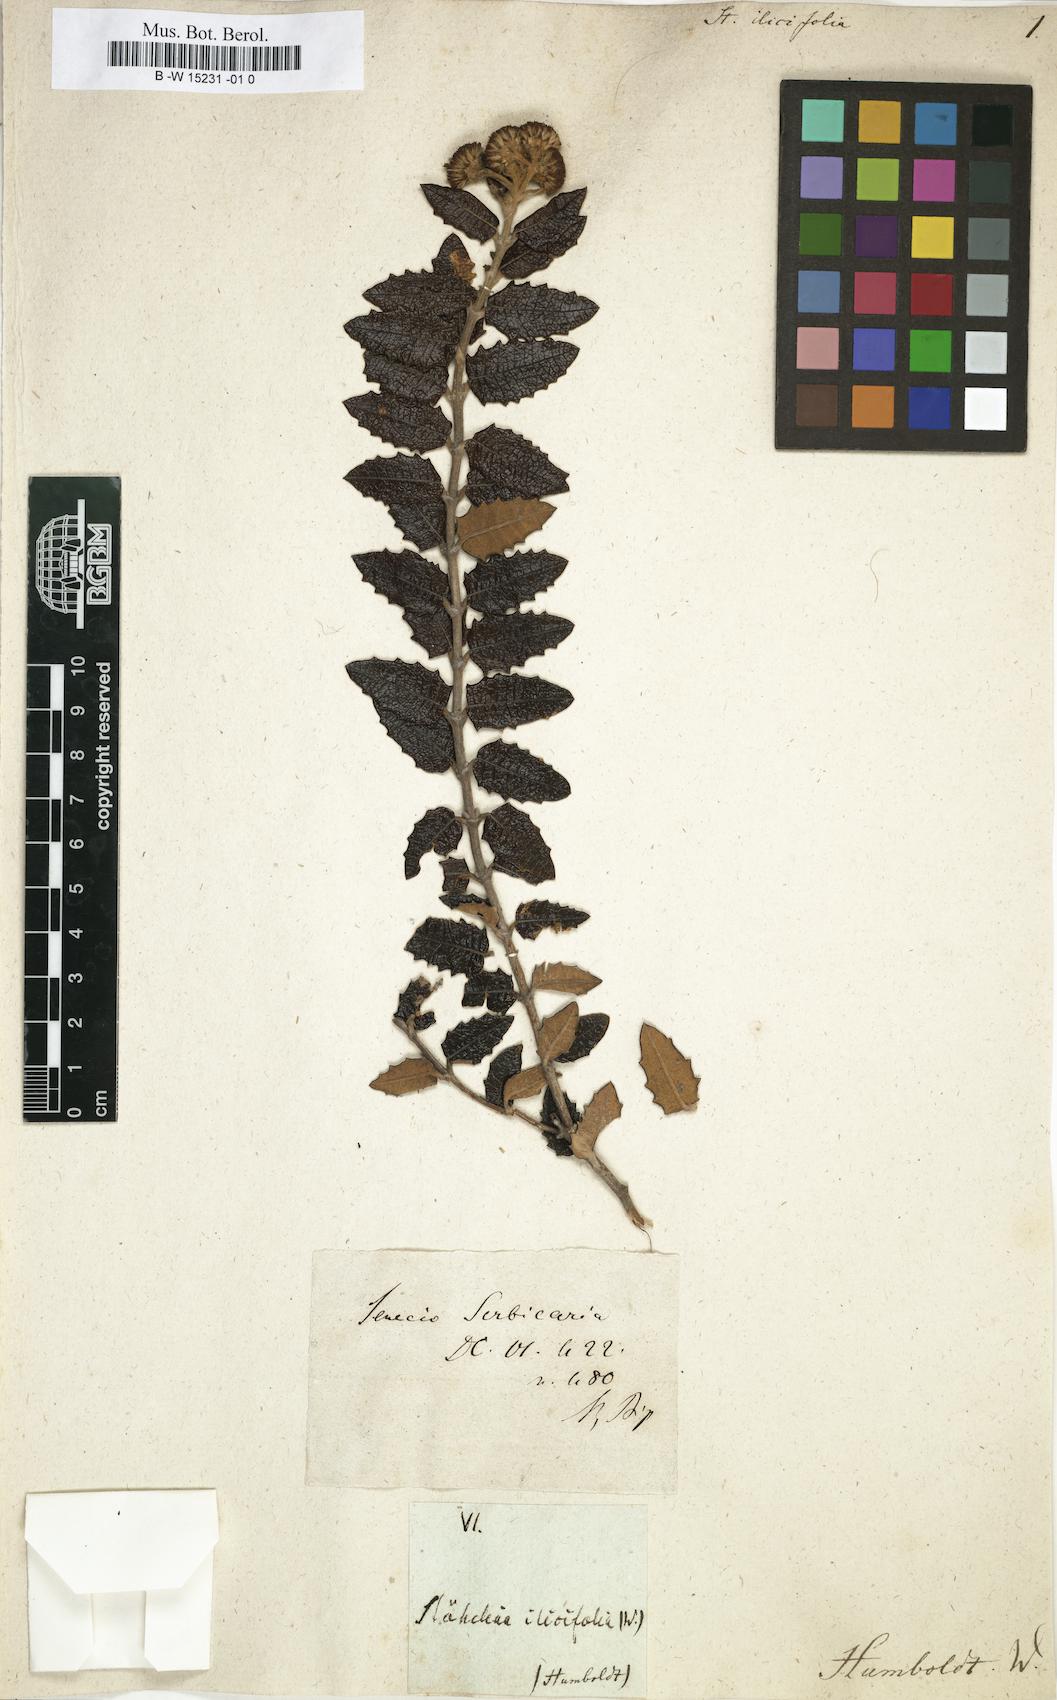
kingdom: Plantae
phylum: Tracheophyta
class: Magnoliopsida
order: Asterales
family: Asteraceae
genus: Scrobicaria
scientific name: Scrobicaria ilicifolia
